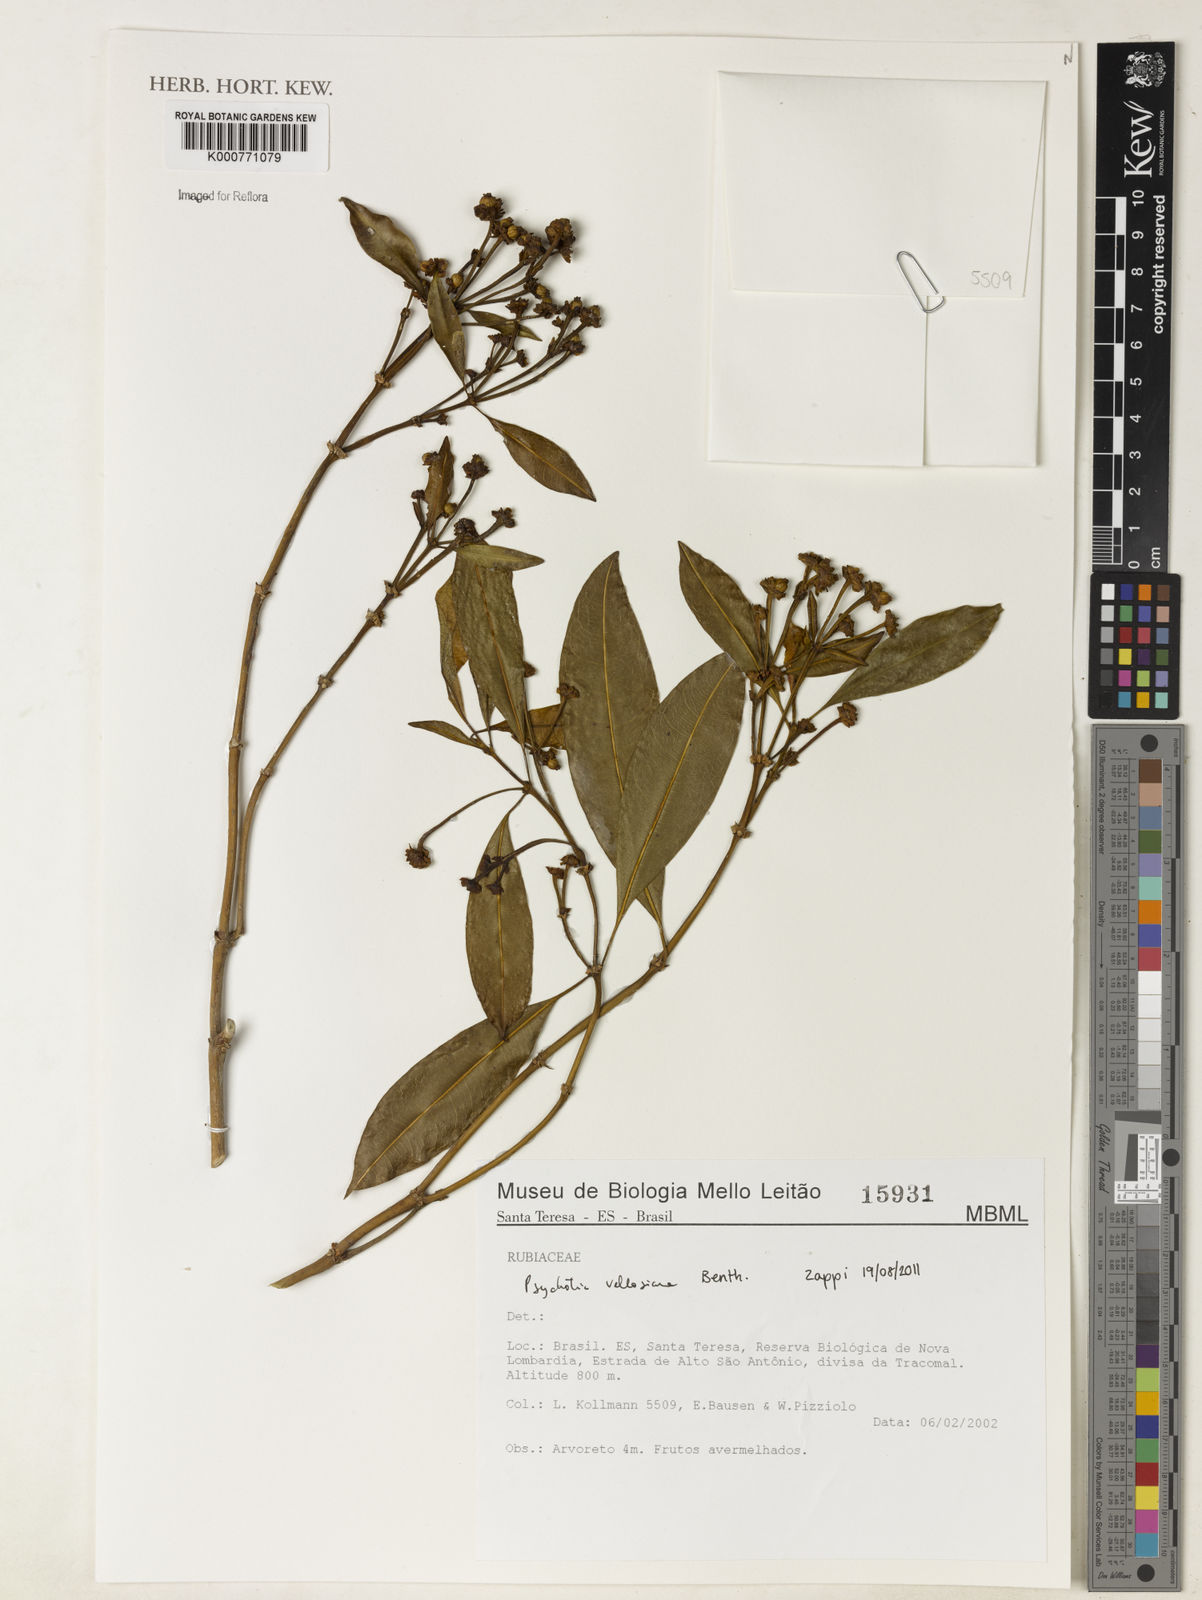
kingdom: Plantae
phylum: Tracheophyta
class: Magnoliopsida
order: Gentianales
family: Rubiaceae
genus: Palicourea
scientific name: Palicourea sessilis
